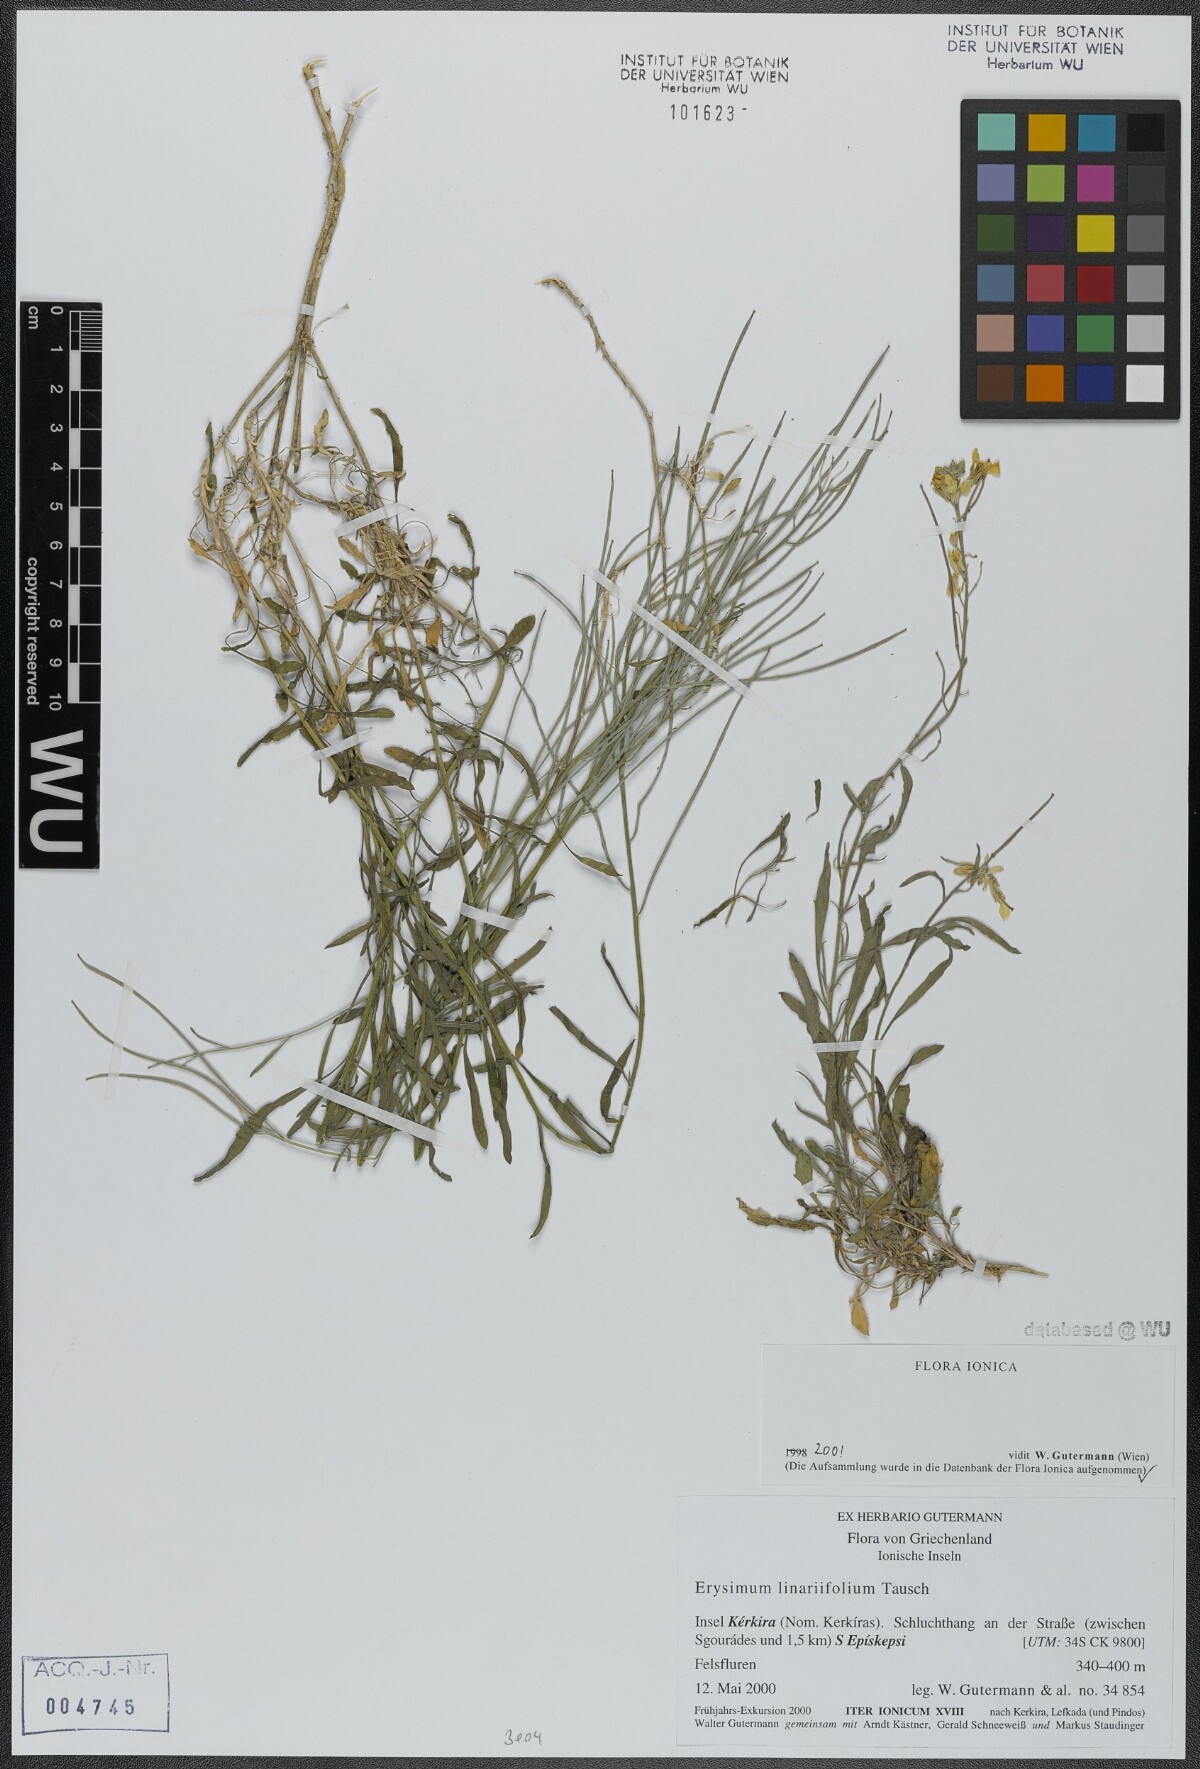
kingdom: Plantae
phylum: Tracheophyta
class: Magnoliopsida
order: Brassicales
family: Brassicaceae
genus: Erysimum
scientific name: Erysimum linariifolium
